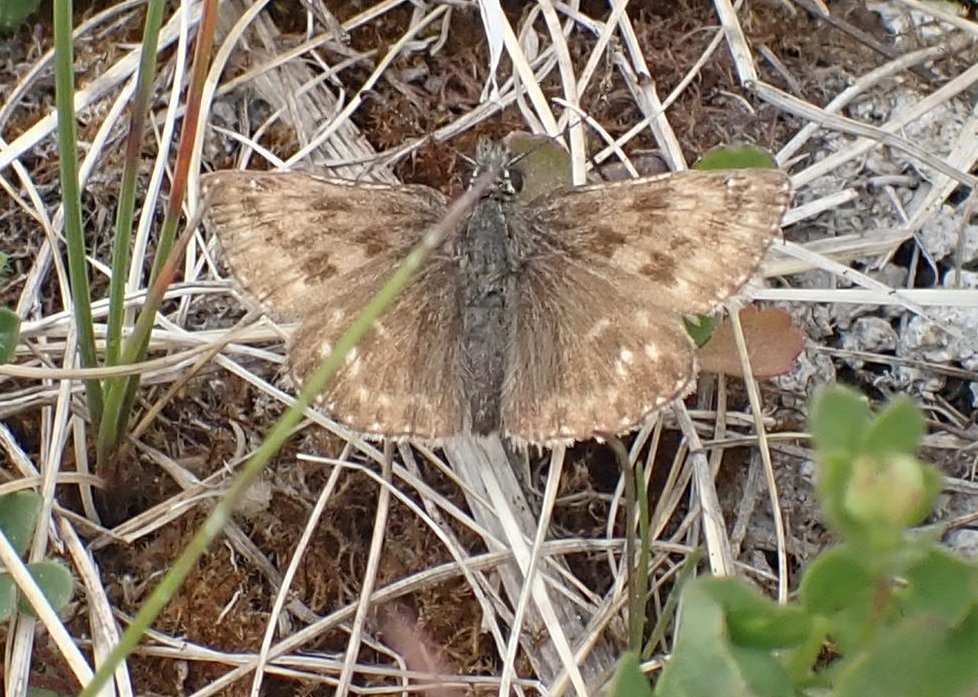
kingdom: Animalia
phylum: Arthropoda
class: Insecta
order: Lepidoptera
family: Hesperiidae
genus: Erynnis
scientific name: Erynnis tages
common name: Gråbåndet bredpande
